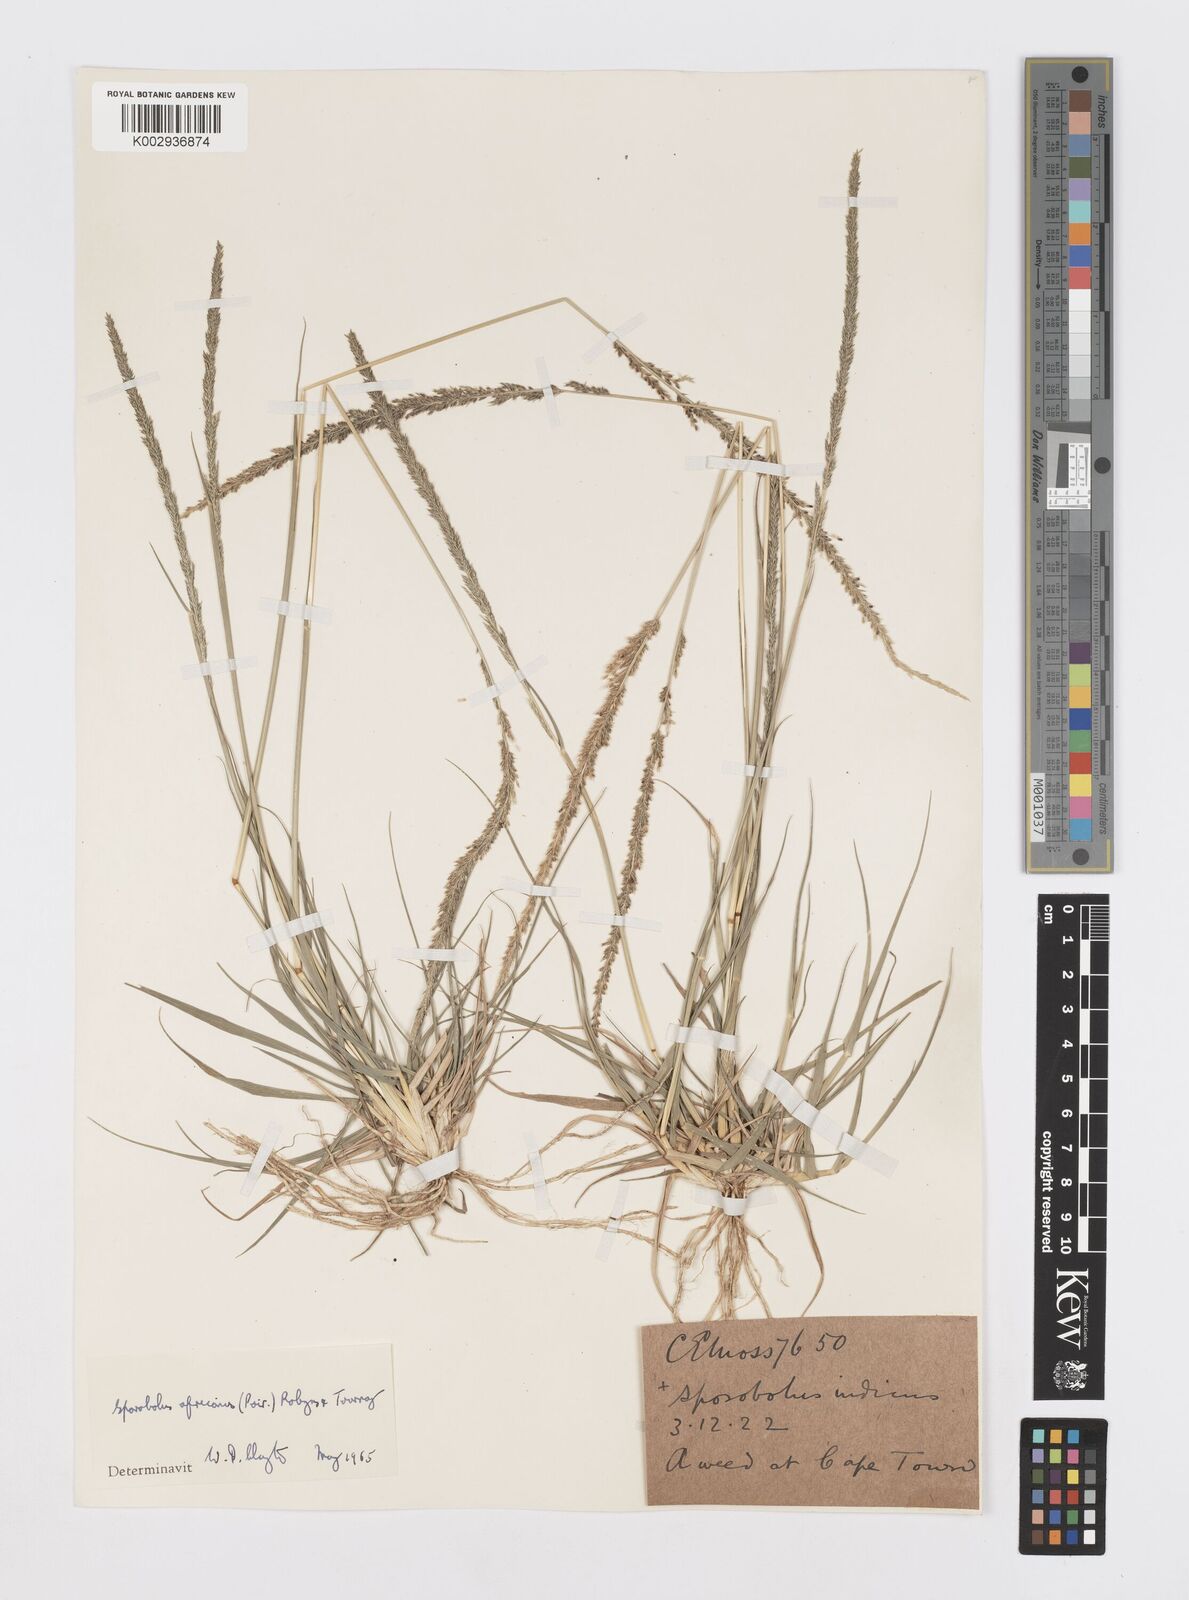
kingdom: Plantae
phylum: Tracheophyta
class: Liliopsida
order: Poales
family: Poaceae
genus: Sporobolus
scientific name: Sporobolus africanus
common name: African dropseed
